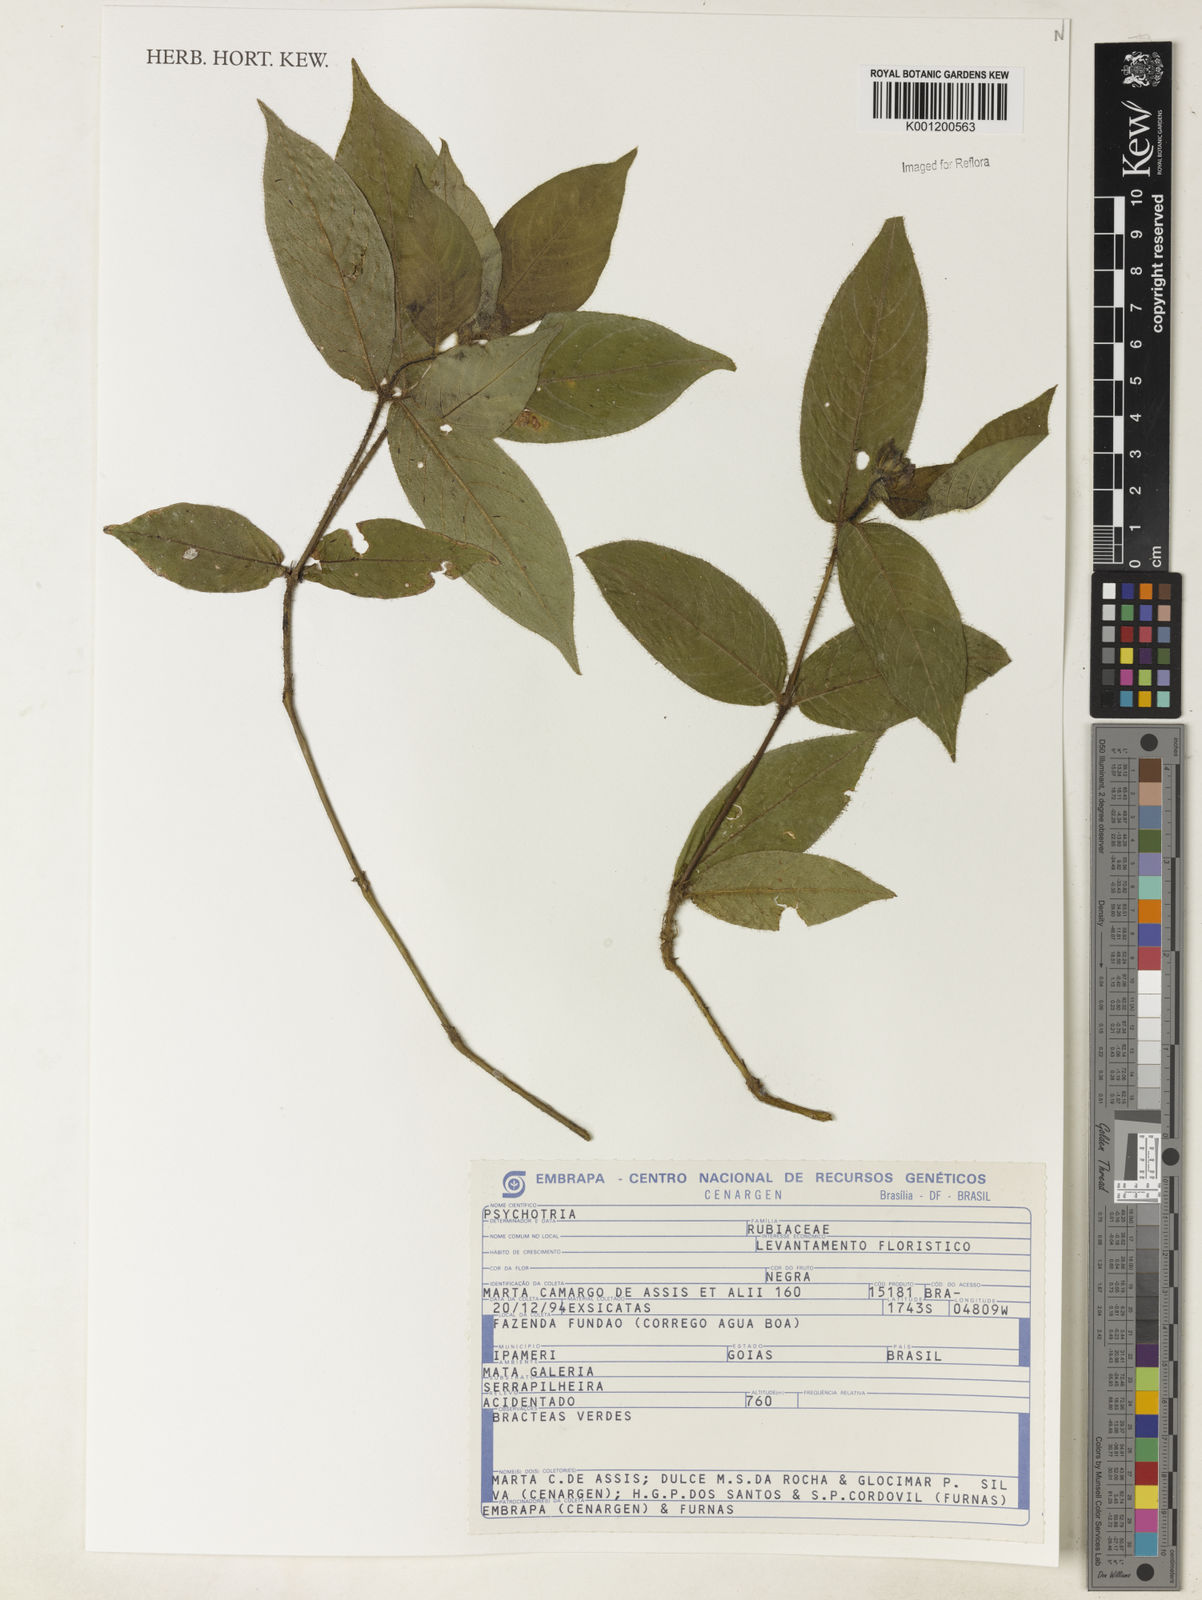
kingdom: Plantae
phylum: Tracheophyta
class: Magnoliopsida
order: Gentianales
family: Rubiaceae
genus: Psychotria
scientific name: Psychotria
